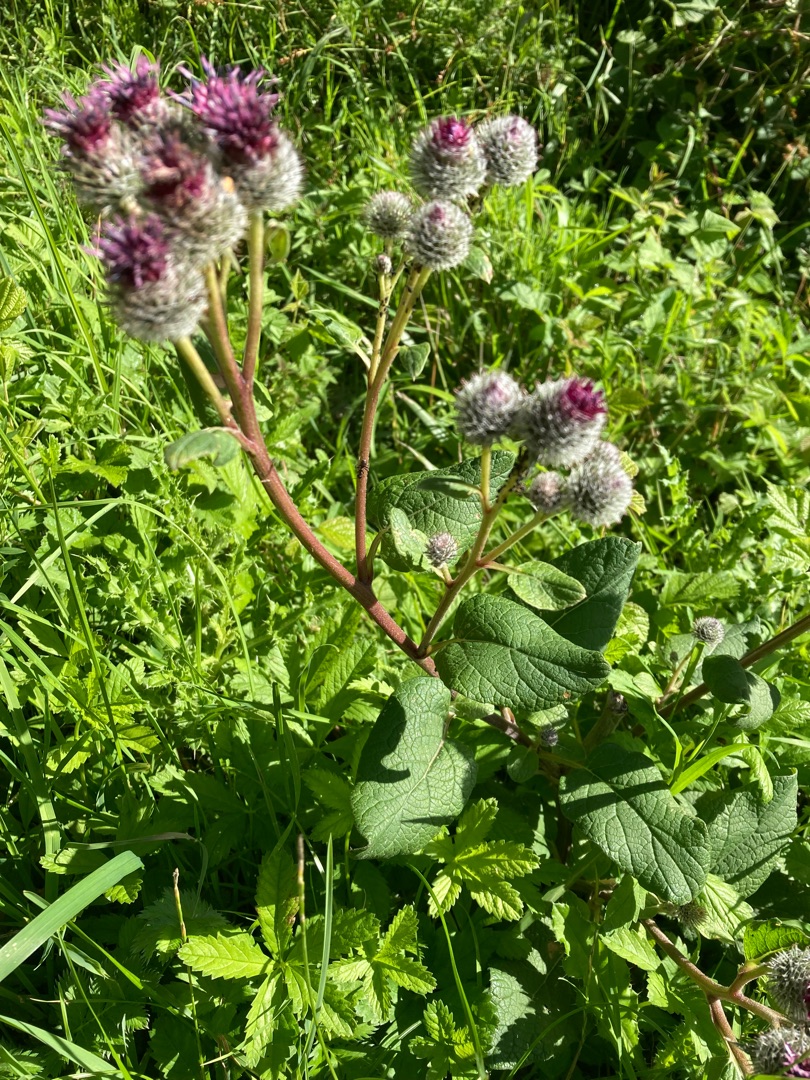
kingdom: Plantae
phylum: Tracheophyta
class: Magnoliopsida
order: Asterales
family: Asteraceae
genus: Arctium
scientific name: Arctium tomentosum
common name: Filtet burre
